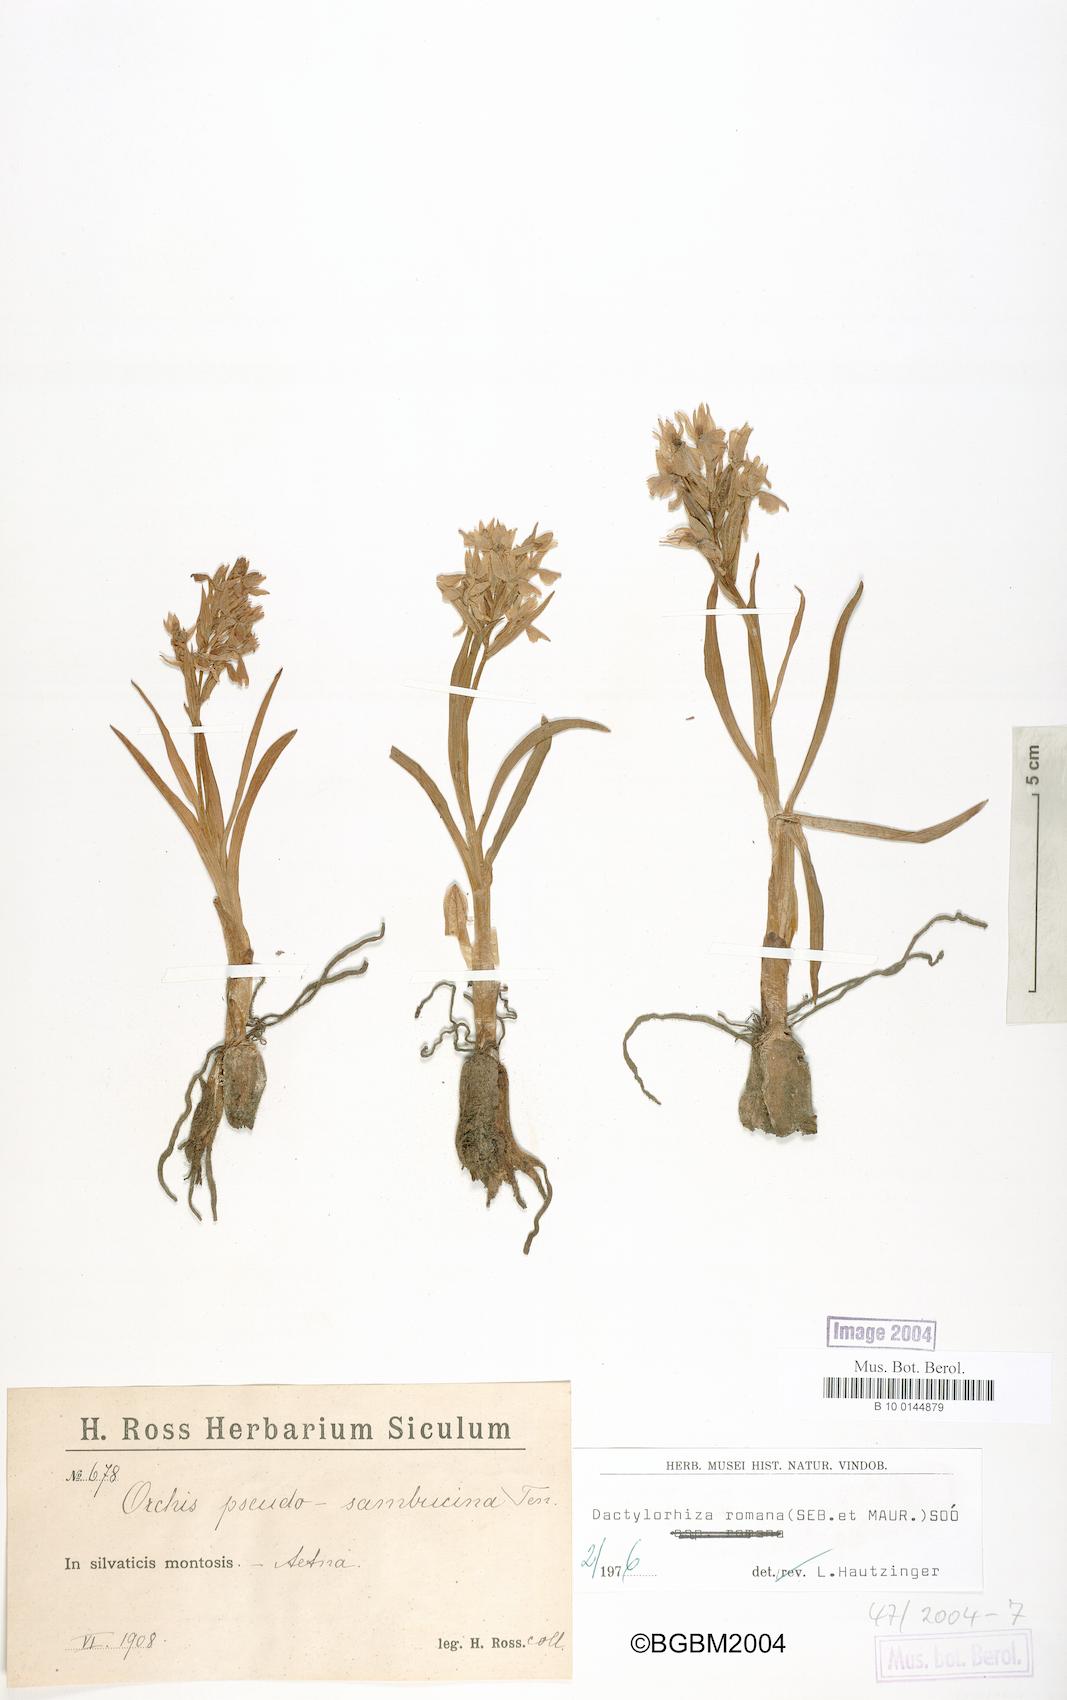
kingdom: Plantae
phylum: Tracheophyta
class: Liliopsida
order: Asparagales
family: Orchidaceae
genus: Dactylorhiza
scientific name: Dactylorhiza romana
